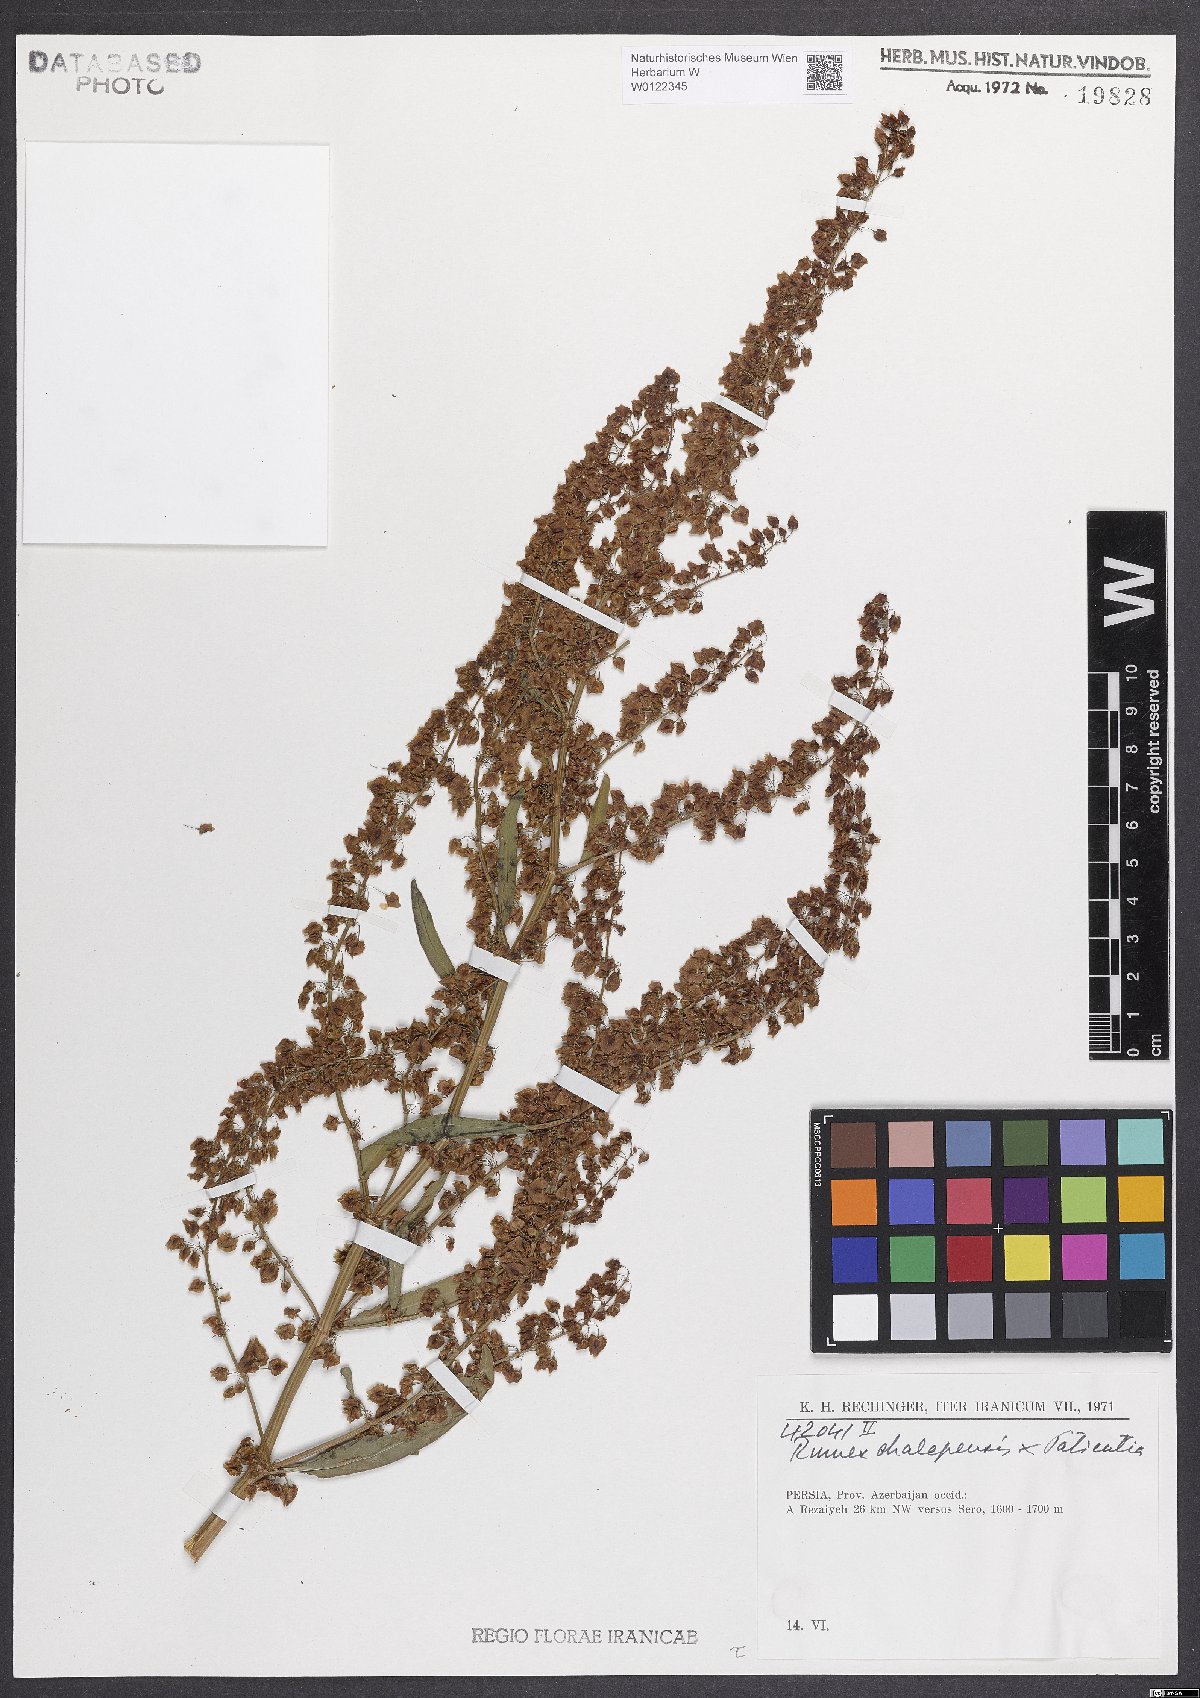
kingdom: Plantae
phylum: Tracheophyta
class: Magnoliopsida
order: Caryophyllales
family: Polygonaceae
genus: Rumex
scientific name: Rumex exspectatus
